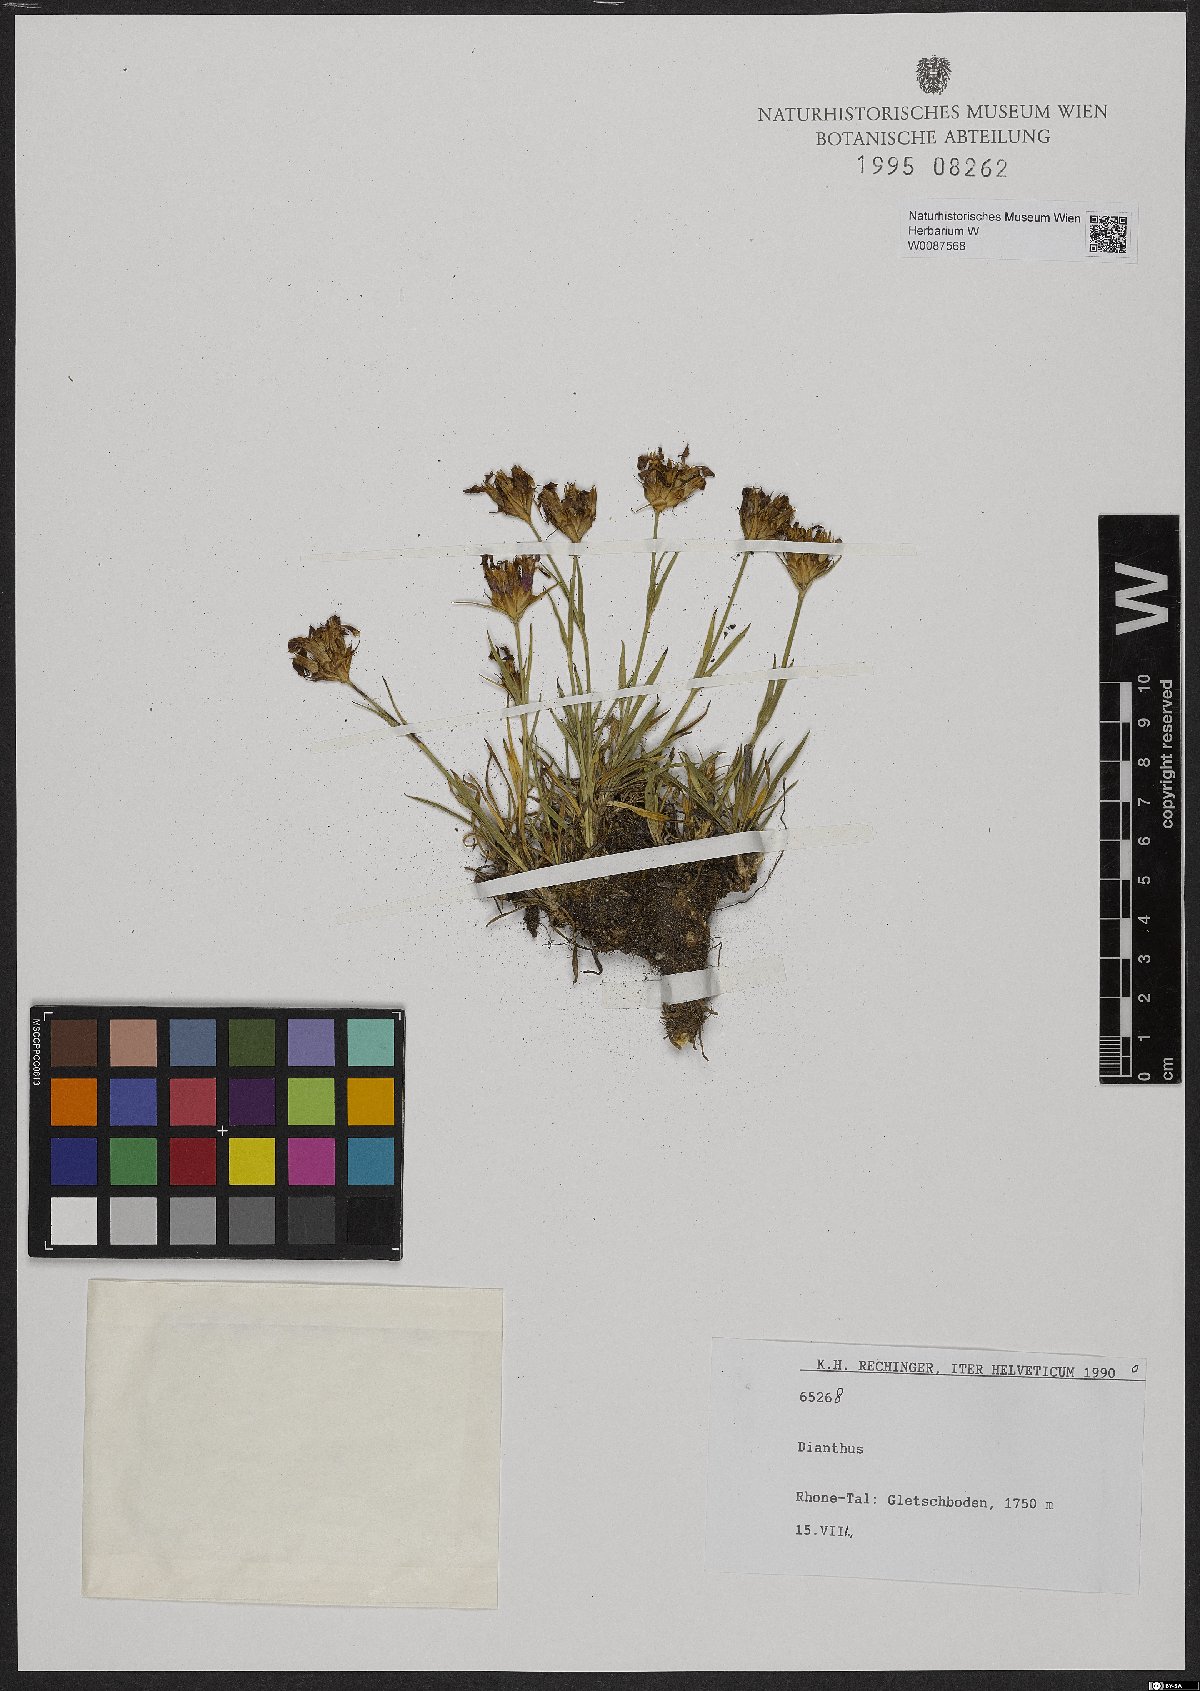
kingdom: Plantae
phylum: Tracheophyta
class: Magnoliopsida
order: Caryophyllales
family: Caryophyllaceae
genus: Dianthus
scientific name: Dianthus
